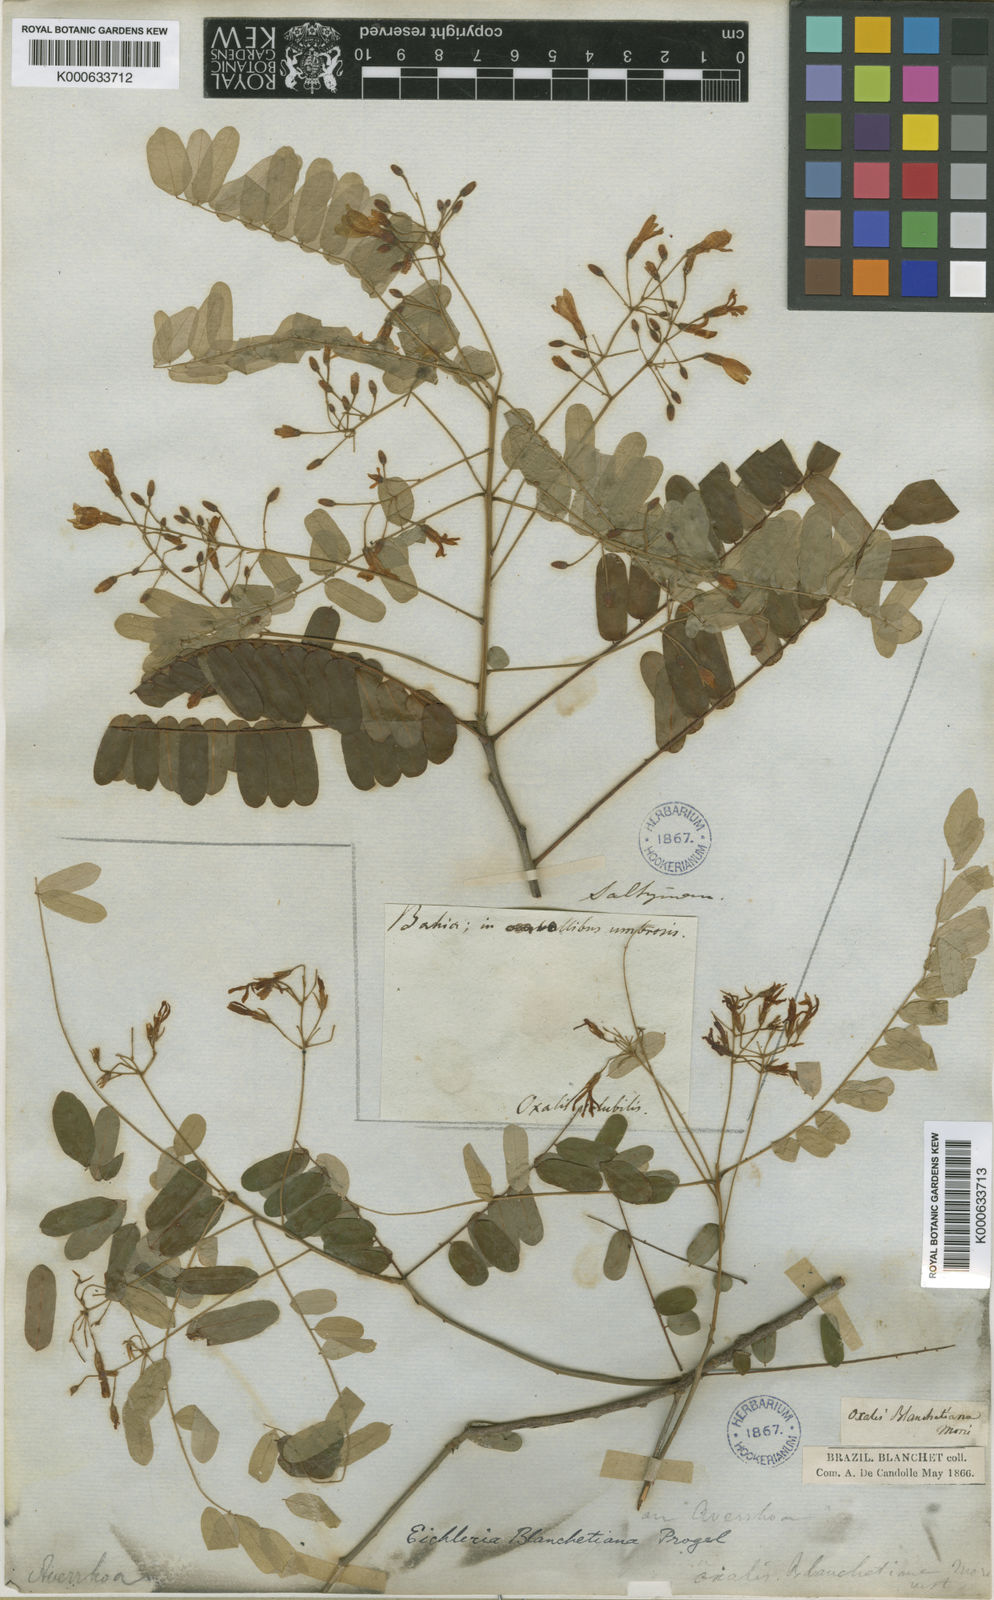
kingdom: Plantae
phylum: Tracheophyta
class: Magnoliopsida
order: Oxalidales
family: Connaraceae
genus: Rourea
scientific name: Rourea blanchetiana
